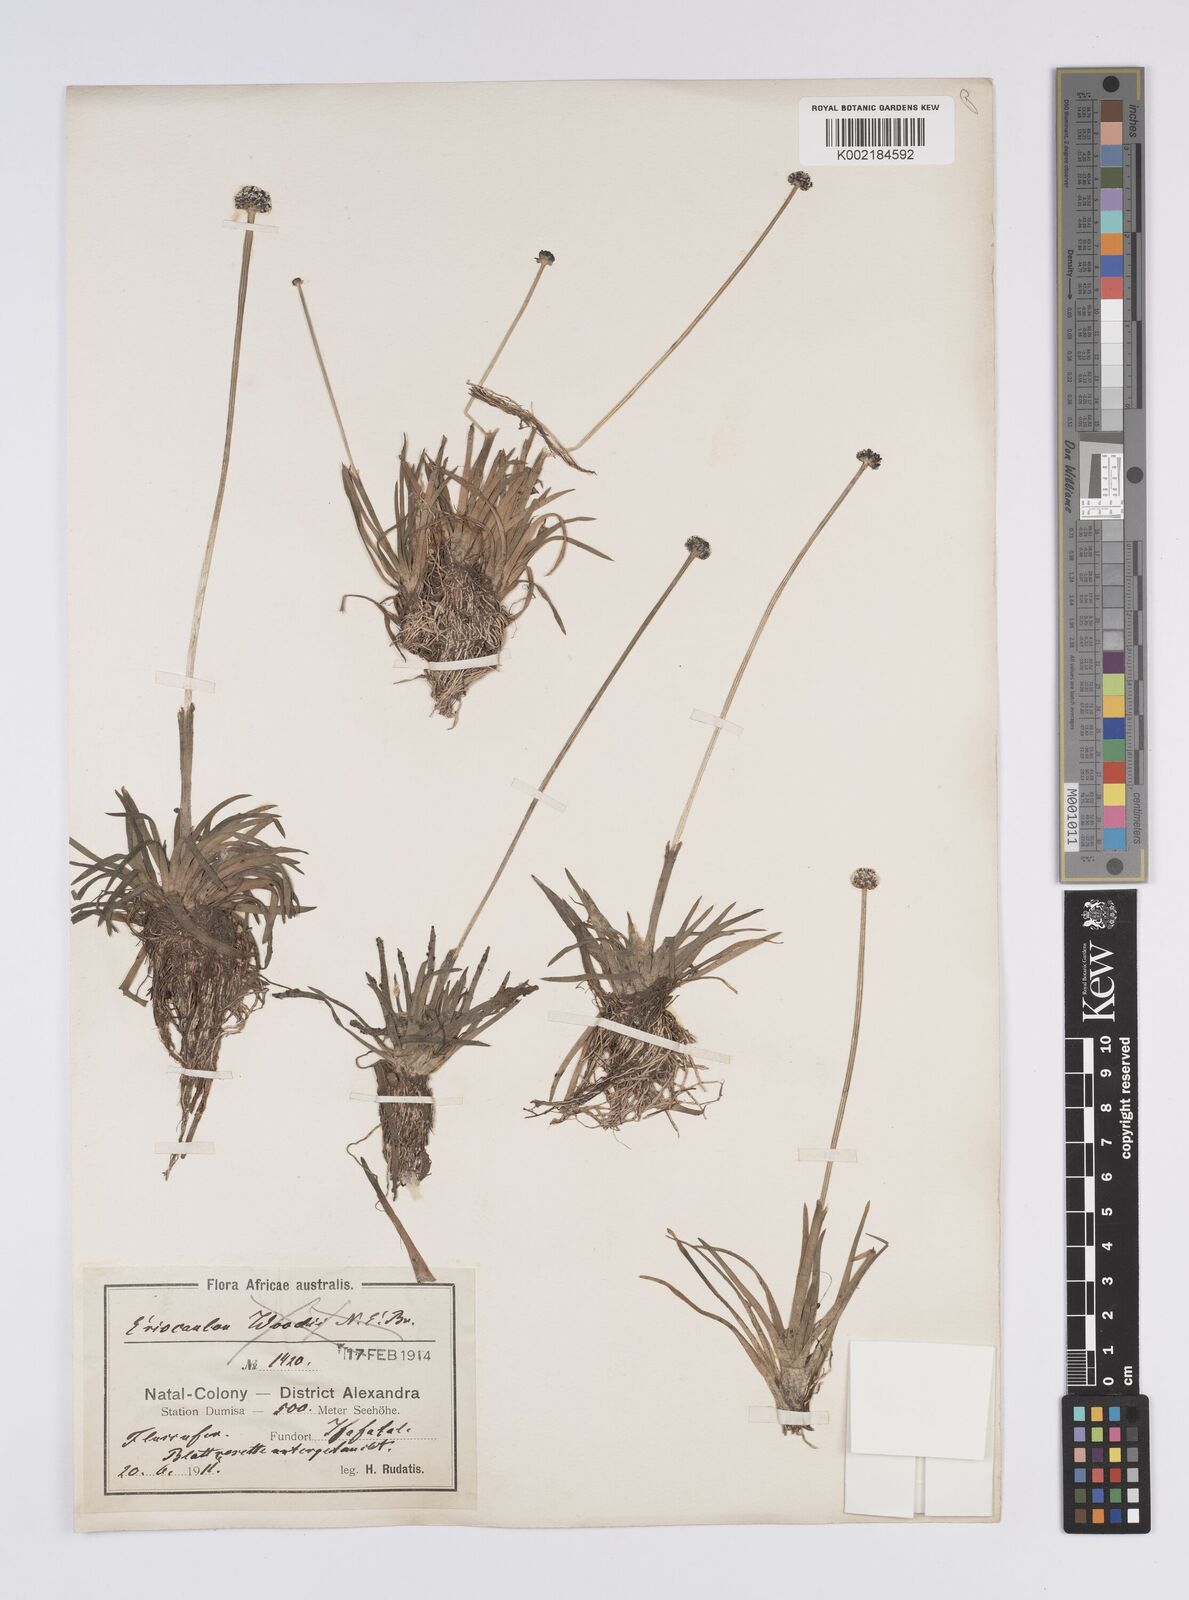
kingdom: Plantae
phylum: Tracheophyta
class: Liliopsida
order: Poales
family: Eriocaulaceae
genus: Eriocaulon
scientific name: Eriocaulon africanum
